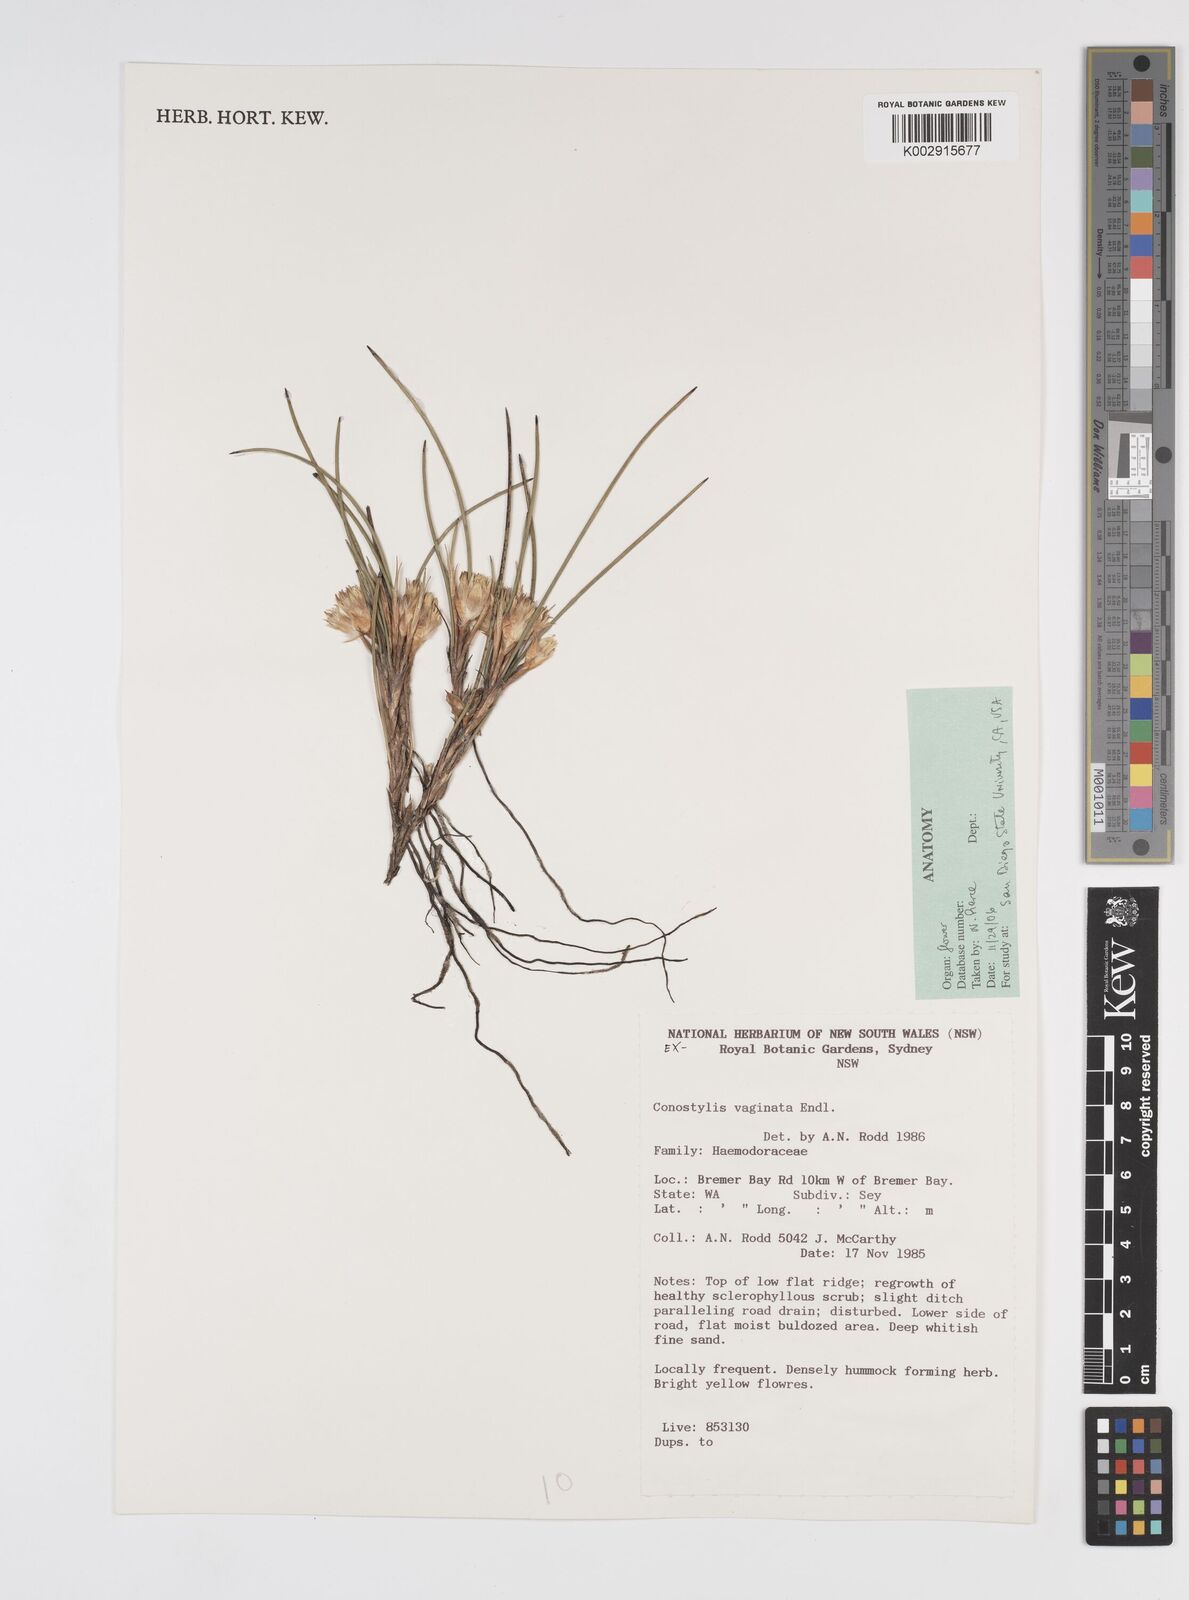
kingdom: Plantae
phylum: Tracheophyta
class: Liliopsida
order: Commelinales
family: Haemodoraceae
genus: Conostylis
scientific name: Conostylis vaginata
